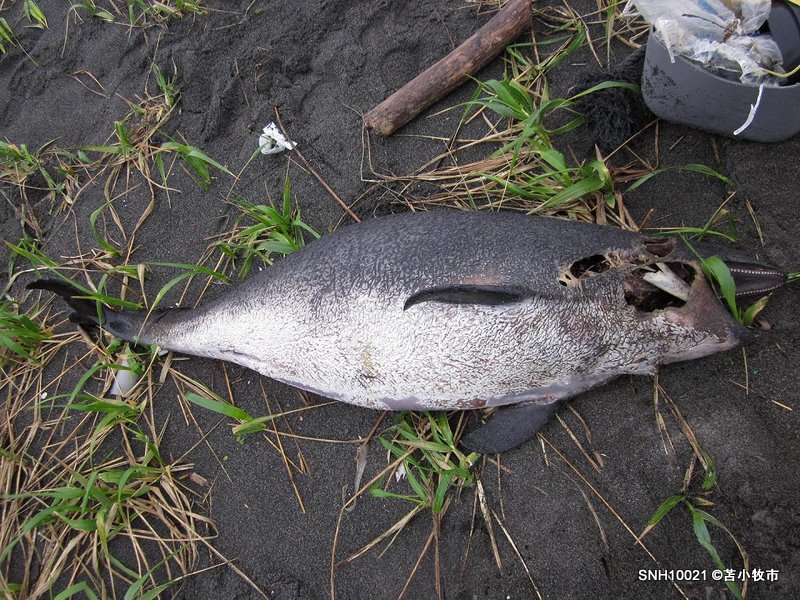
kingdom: Animalia
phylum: Chordata
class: Mammalia
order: Cetacea
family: Phocoenidae
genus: Phocoena
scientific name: Phocoena phocoena
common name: Harbour porpoise
